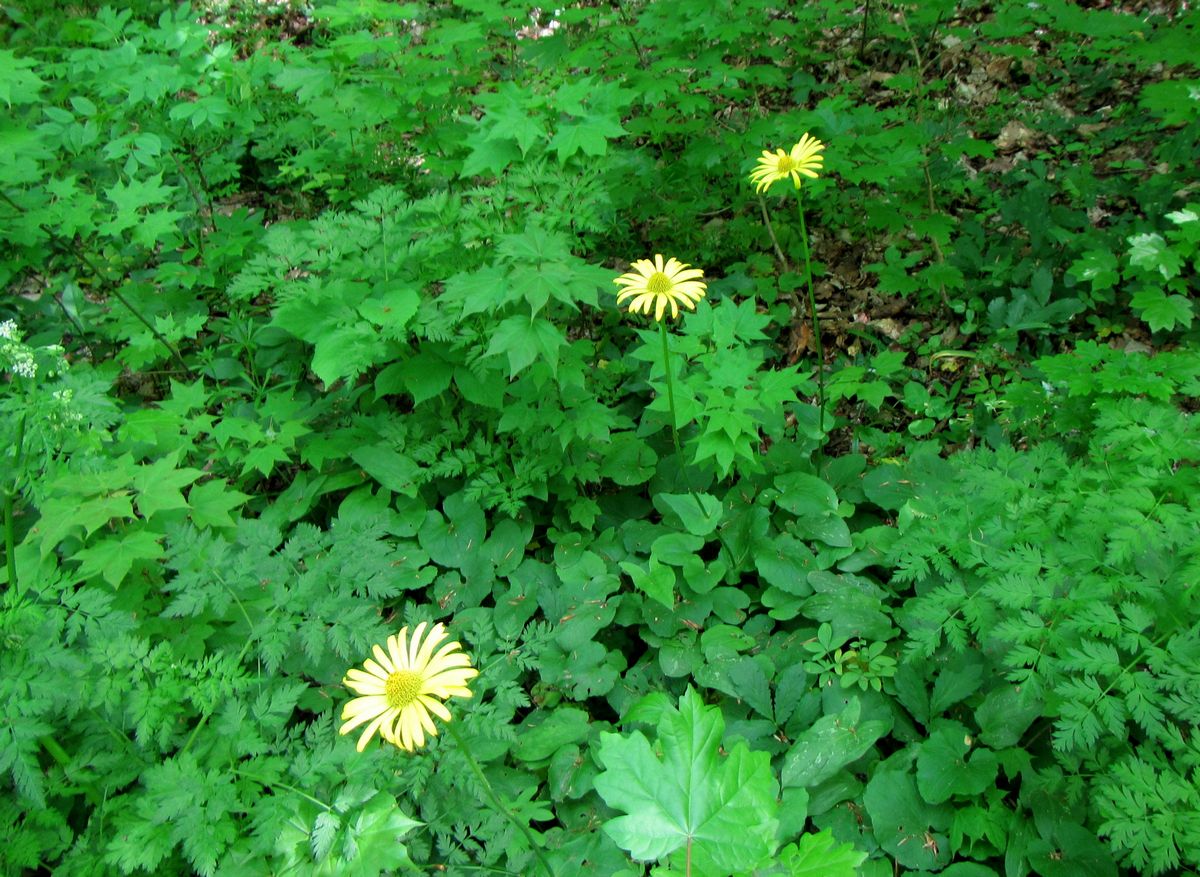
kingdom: Plantae
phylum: Tracheophyta
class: Magnoliopsida
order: Asterales
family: Asteraceae
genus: Doronicum
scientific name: Doronicum orientale
